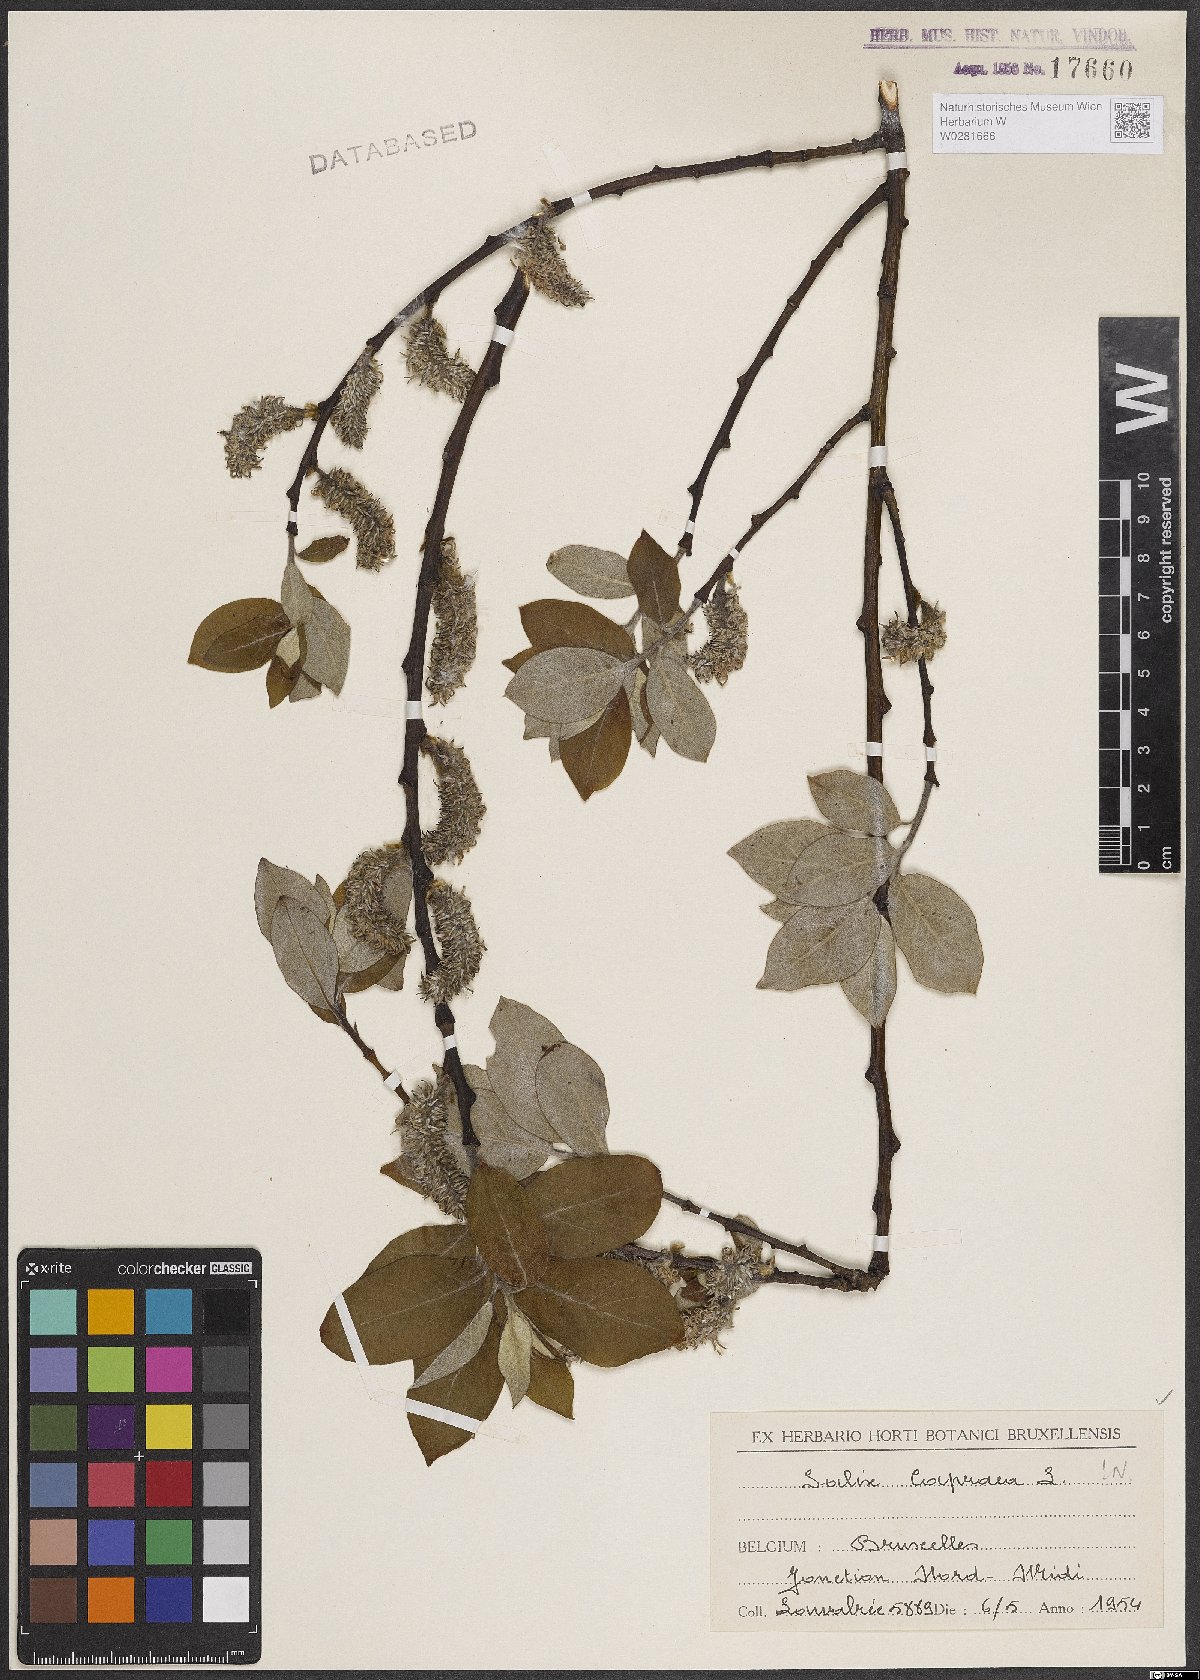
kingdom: Plantae
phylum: Tracheophyta
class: Magnoliopsida
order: Malpighiales
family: Salicaceae
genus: Salix
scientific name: Salix caprea
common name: Goat willow
